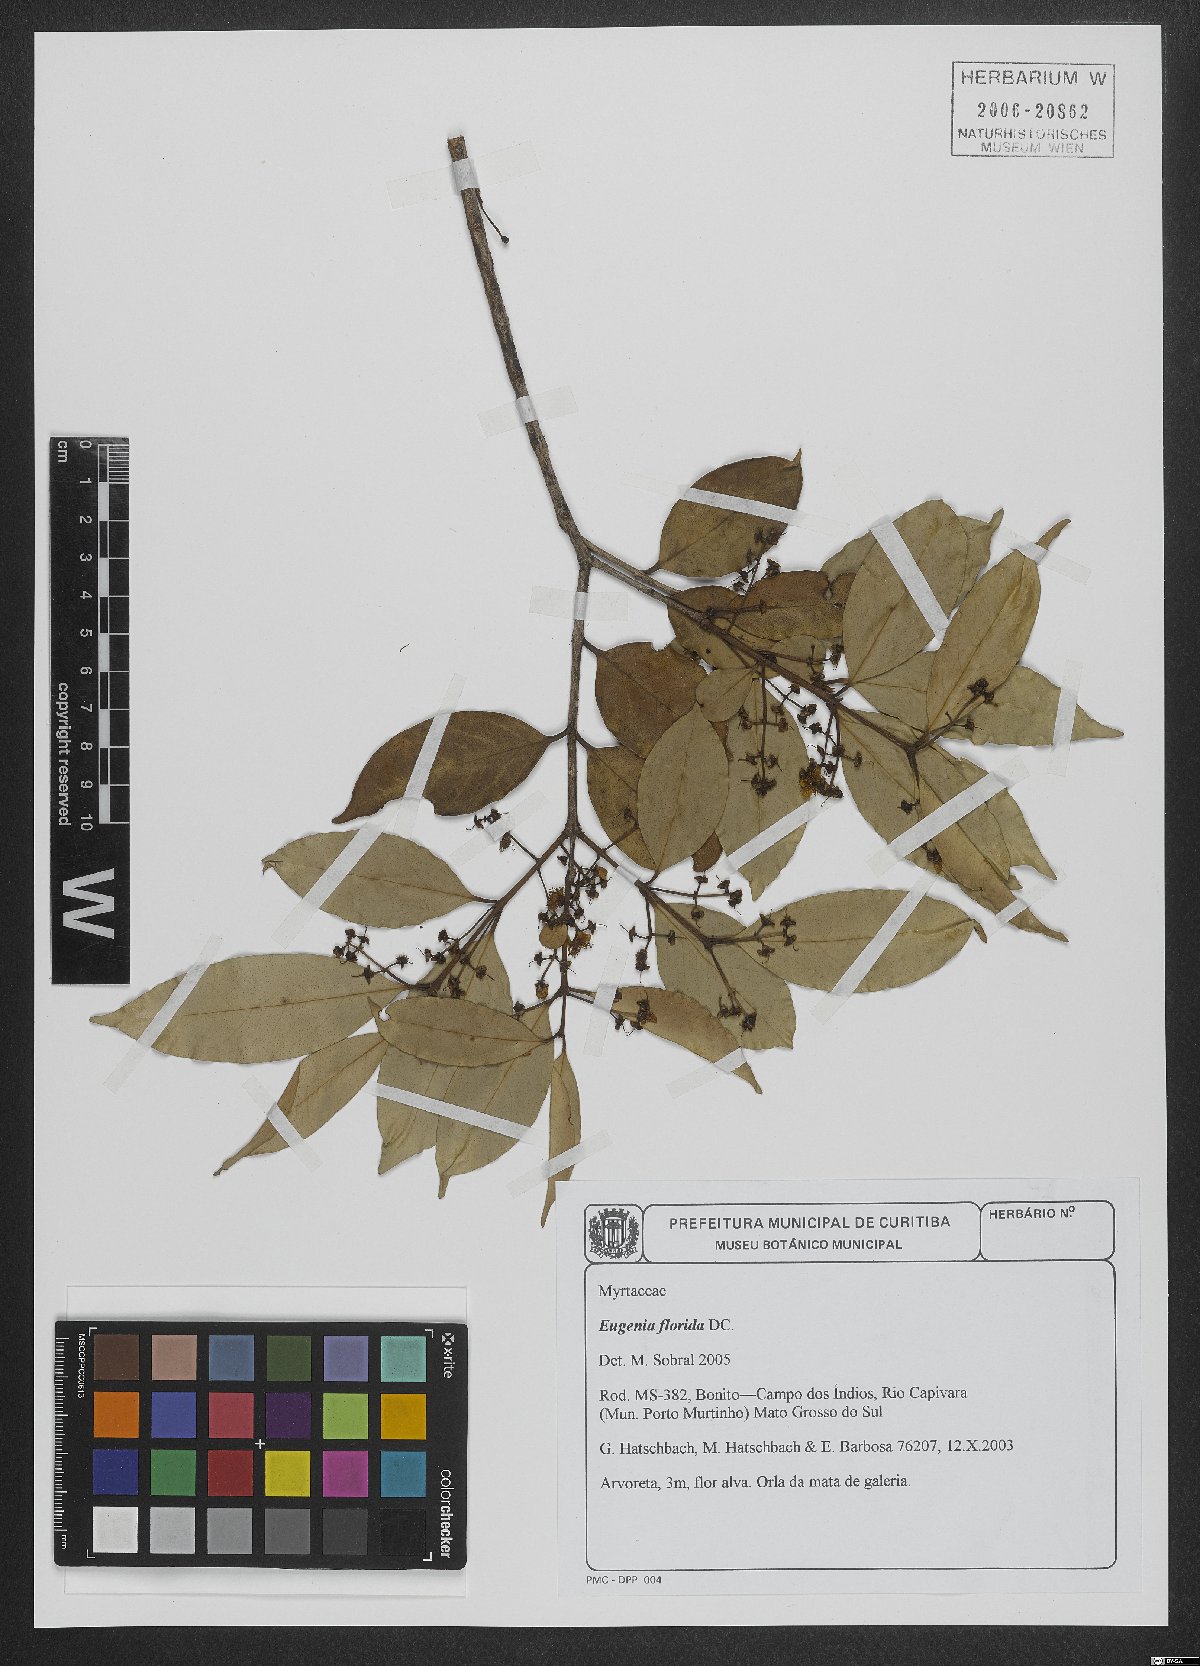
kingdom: Plantae
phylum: Tracheophyta
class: Magnoliopsida
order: Myrtales
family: Myrtaceae
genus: Eugenia
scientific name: Eugenia florida
